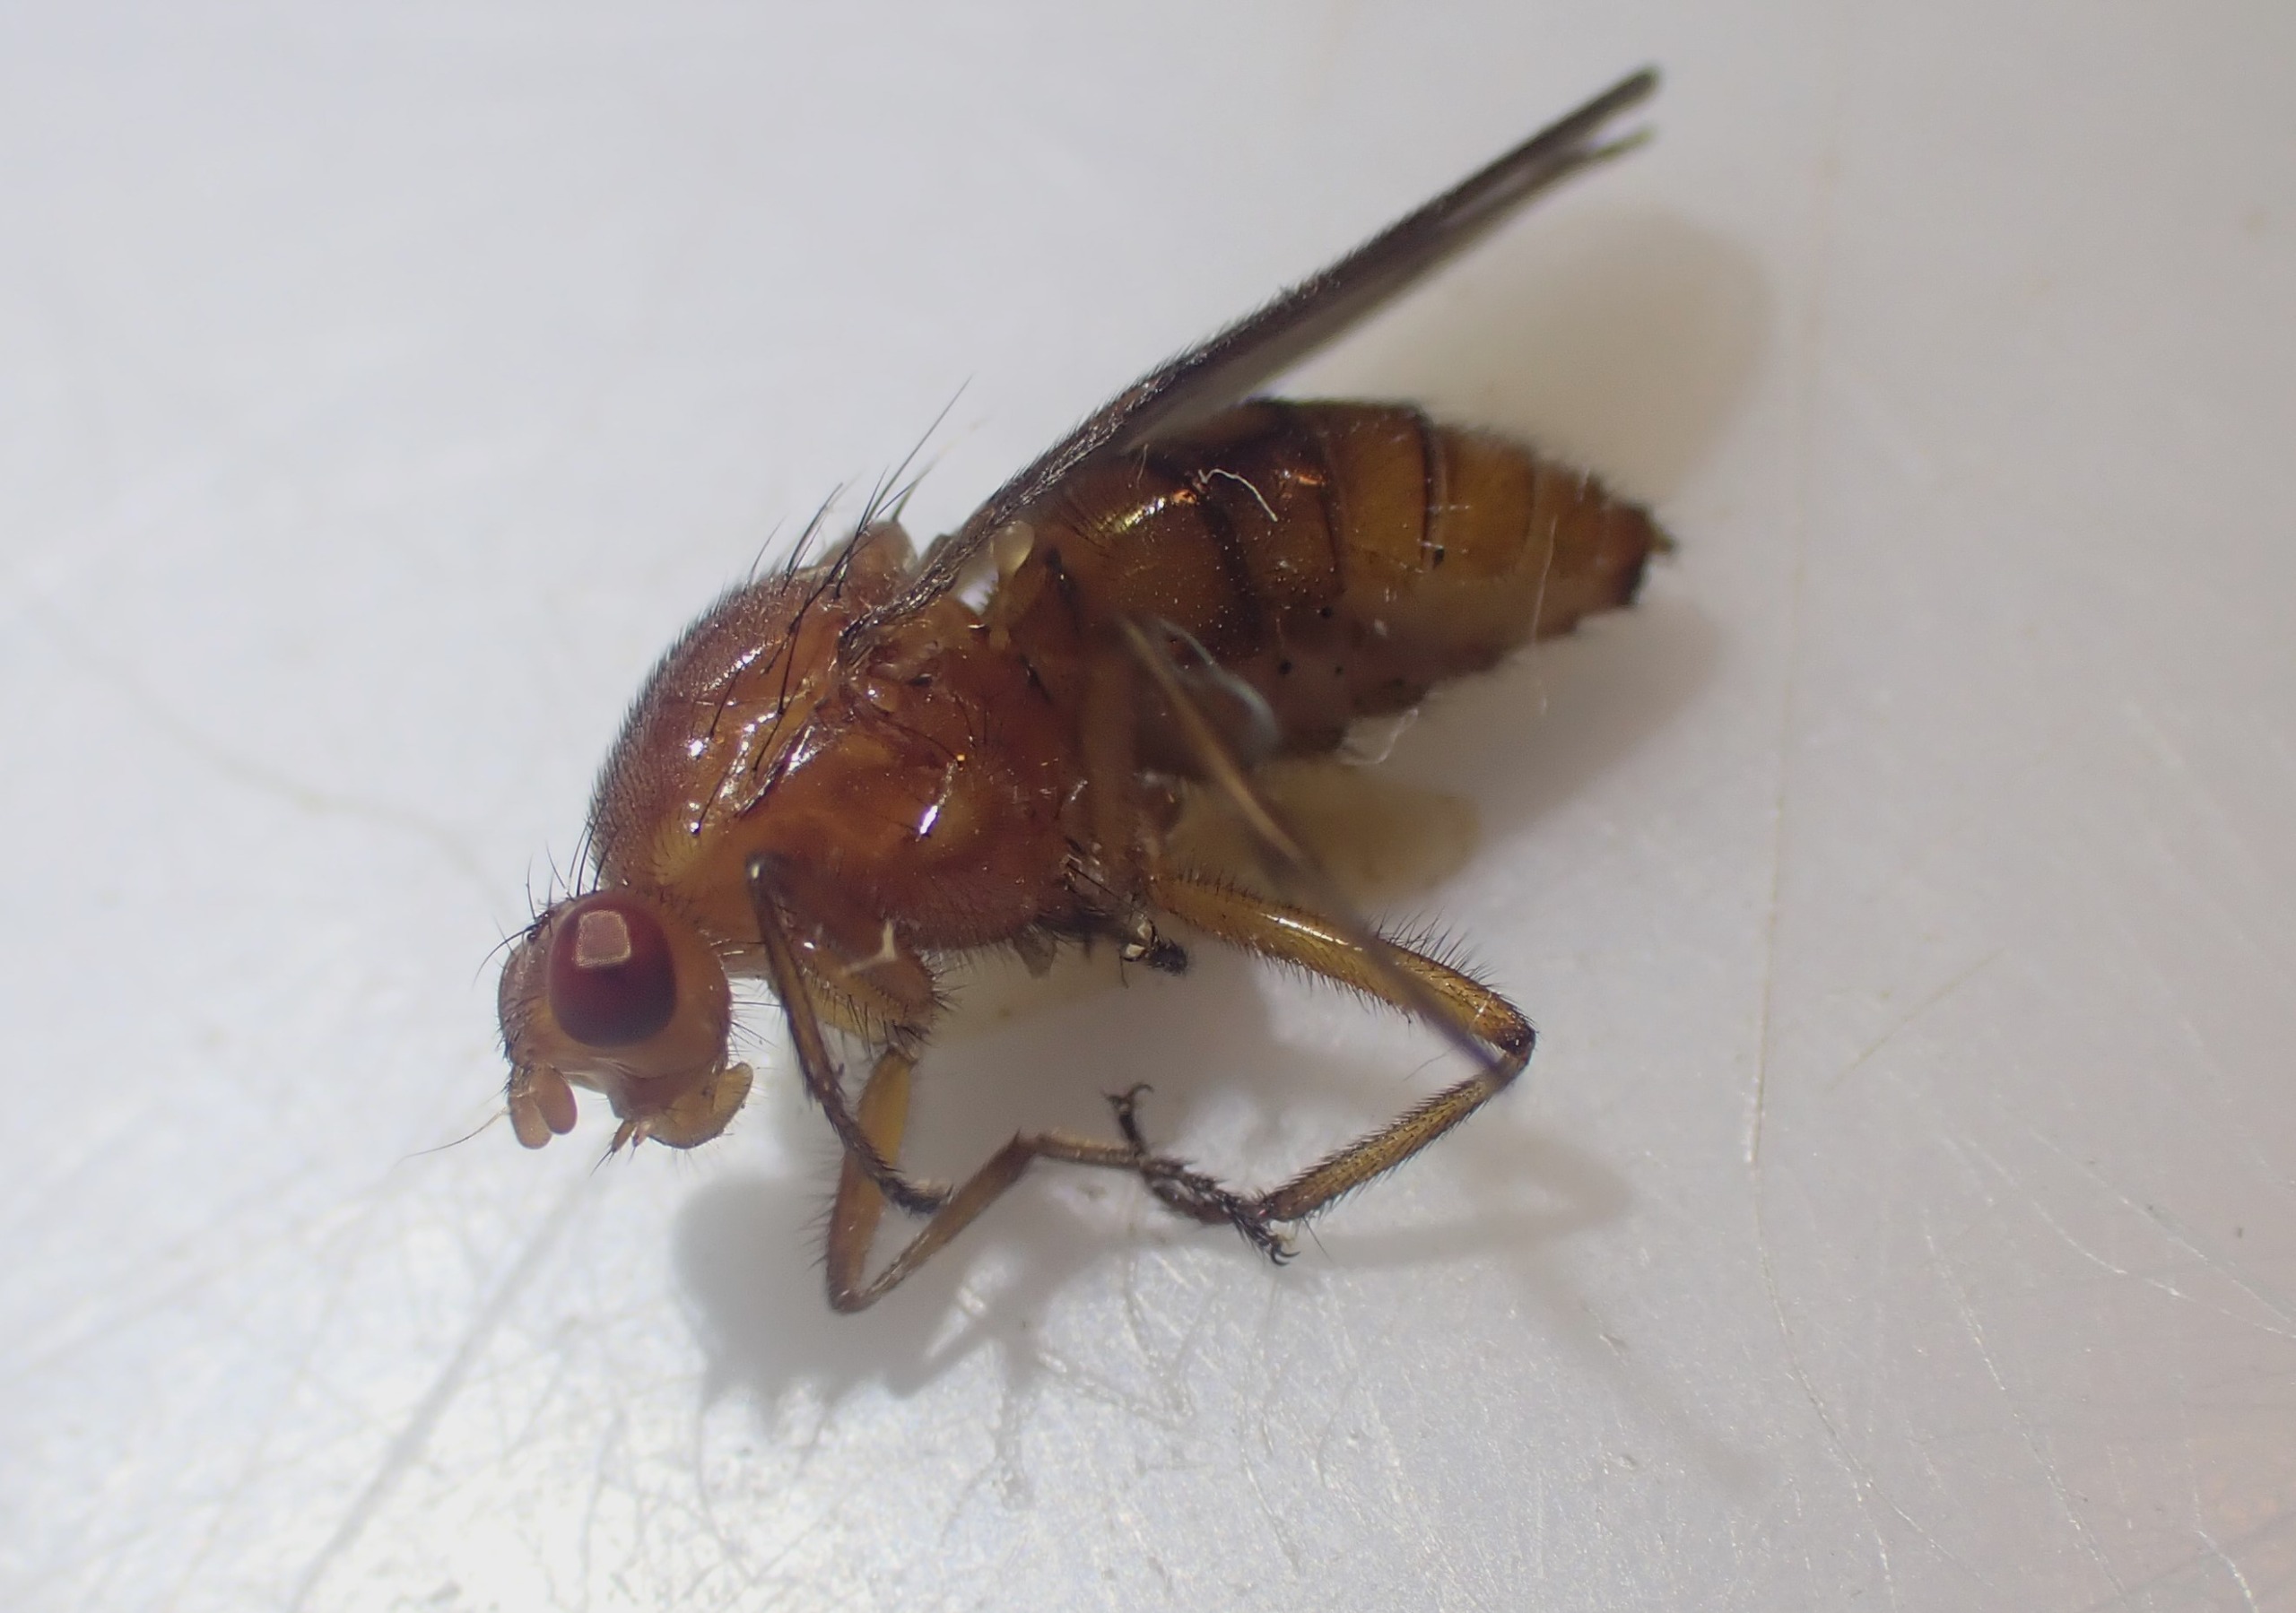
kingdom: Animalia
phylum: Arthropoda
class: Insecta
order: Diptera
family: Dryomyzidae
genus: Dryomyza
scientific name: Dryomyza anilis
